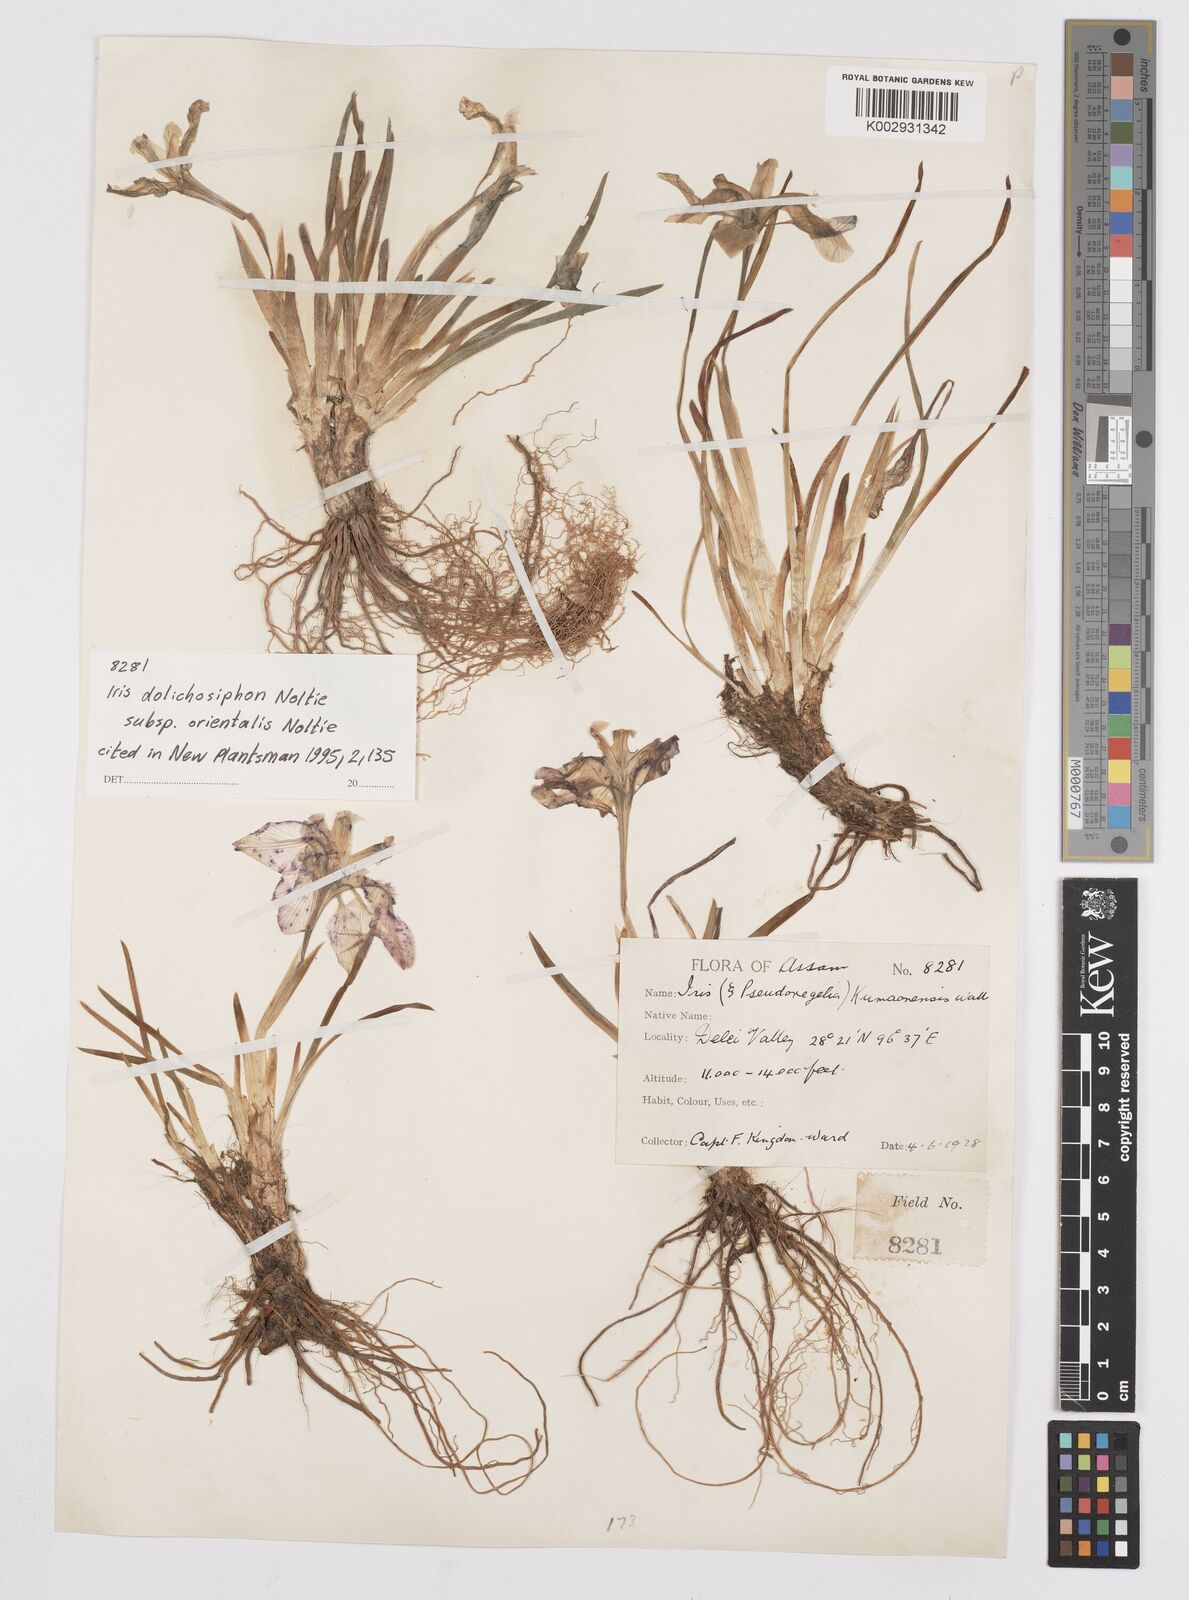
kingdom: Plantae
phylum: Tracheophyta
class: Liliopsida
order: Asparagales
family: Iridaceae
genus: Iris
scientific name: Iris dolichosiphon
